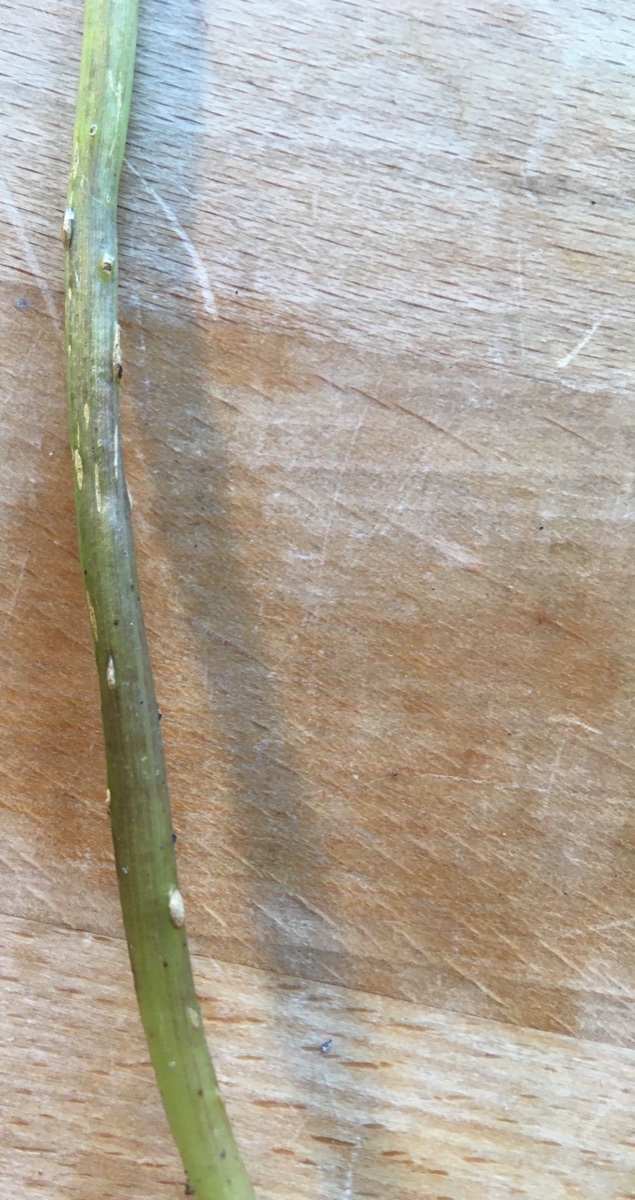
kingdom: Fungi
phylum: Ascomycota
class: Taphrinomycetes
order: Taphrinales
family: Taphrinaceae
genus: Protomyces
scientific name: Protomyces macrosporus
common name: skvalderkål-vablesæk
